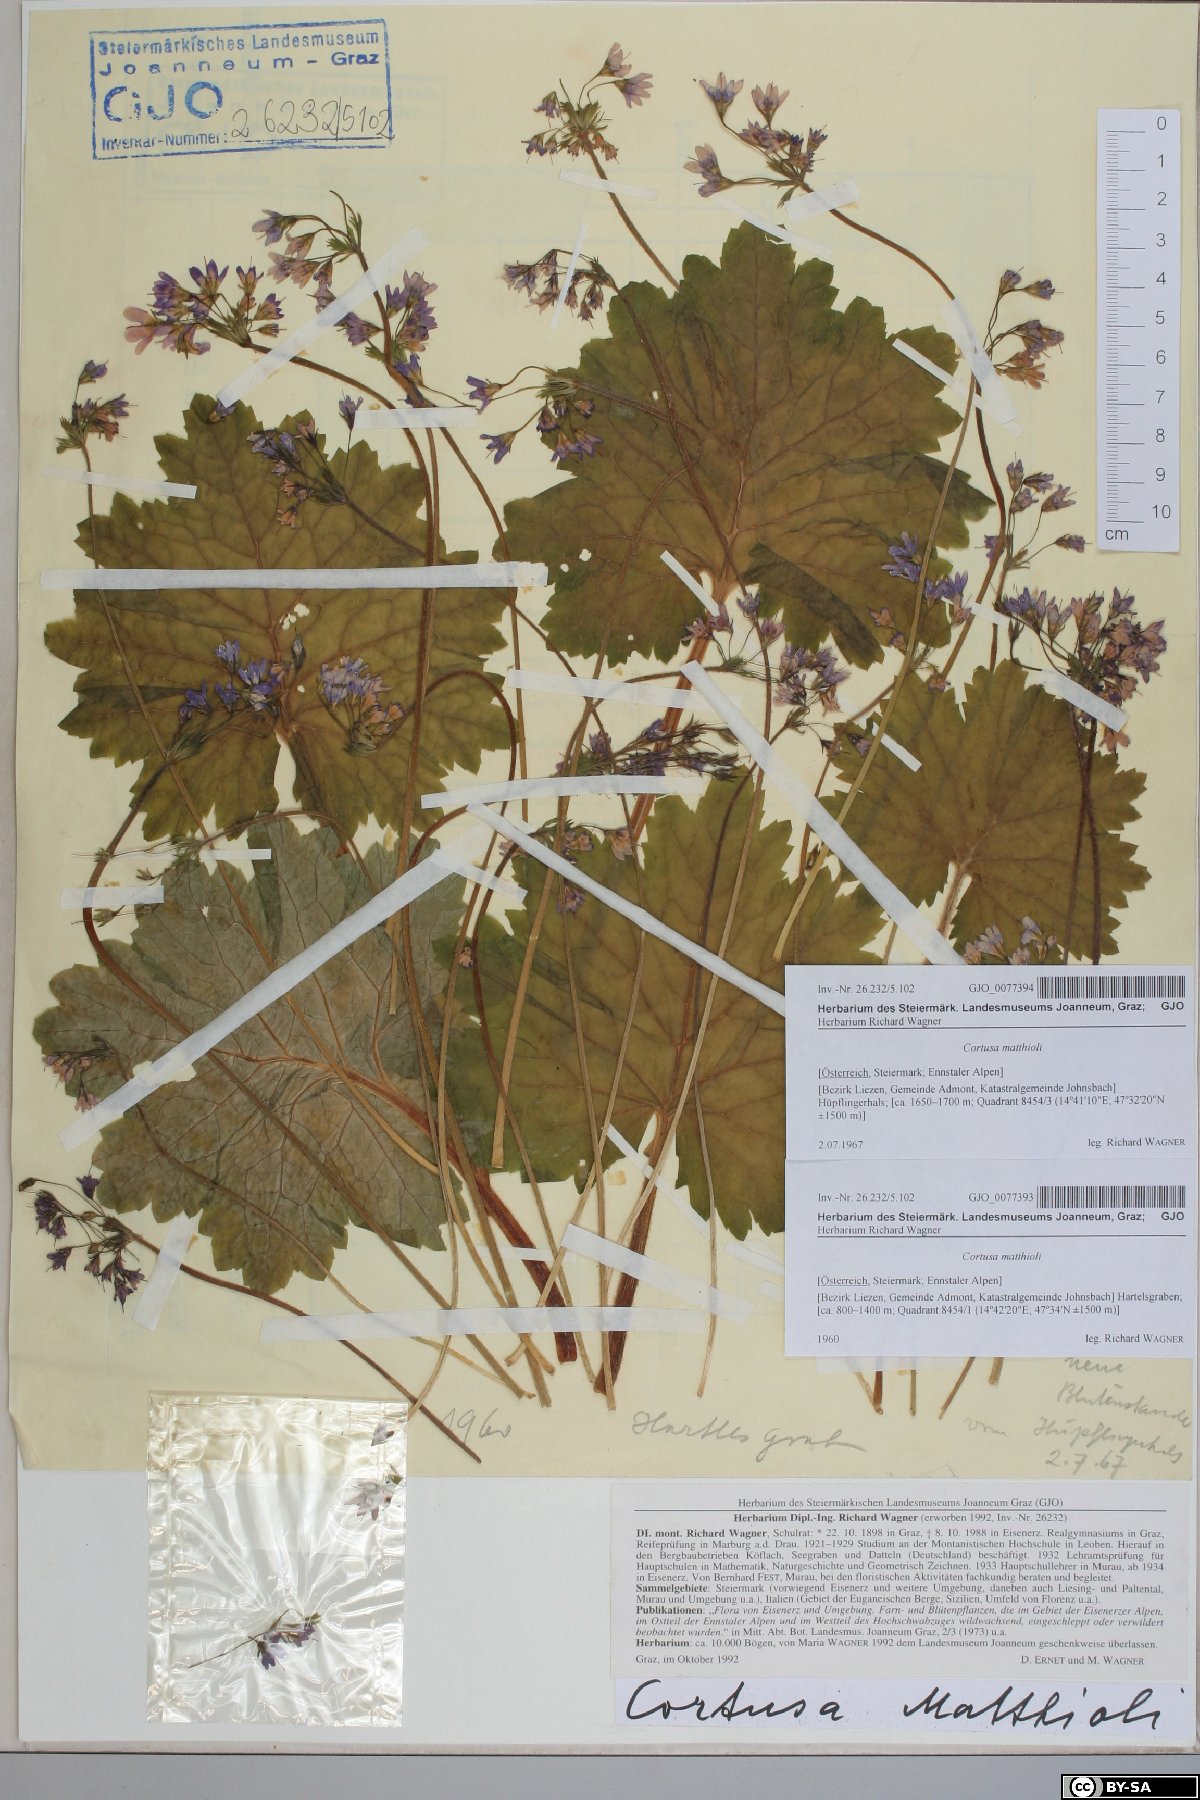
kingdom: Plantae
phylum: Tracheophyta
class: Magnoliopsida
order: Ericales
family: Primulaceae
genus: Primula
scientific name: Primula matthioli
